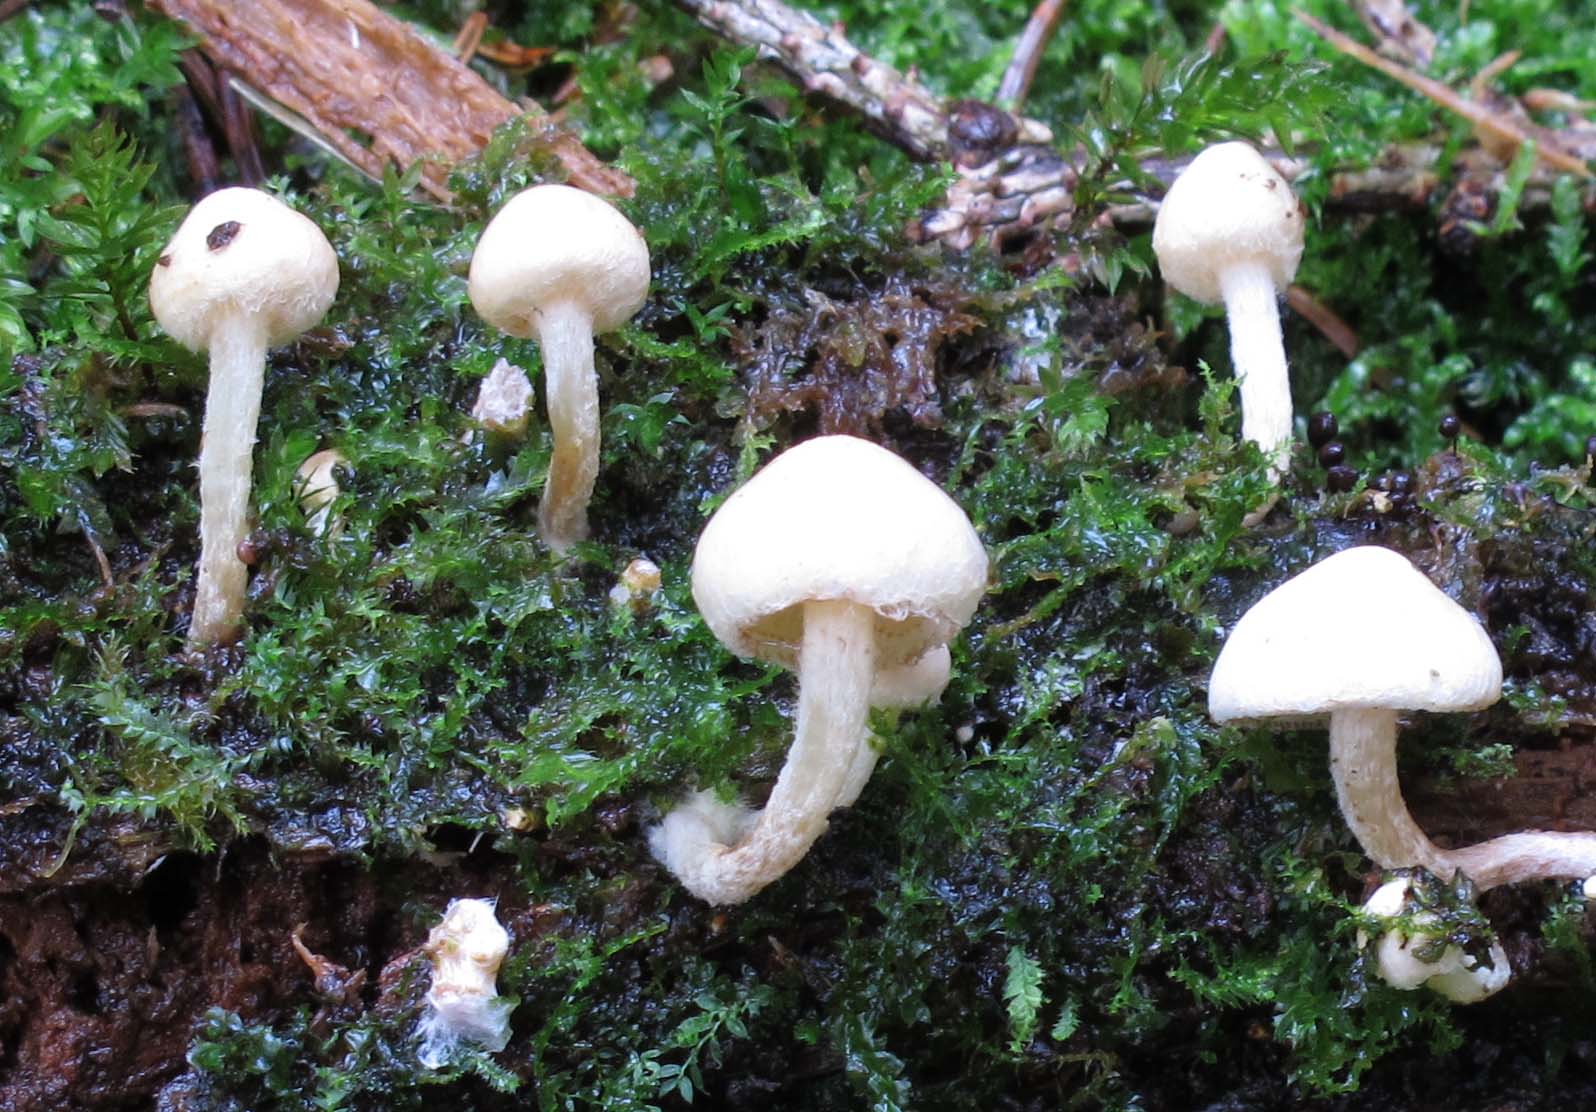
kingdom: Fungi
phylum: Basidiomycota
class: Agaricomycetes
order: Agaricales
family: Strophariaceae
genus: Pholiota
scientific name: Pholiota scamba
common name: dværg-skælhat
